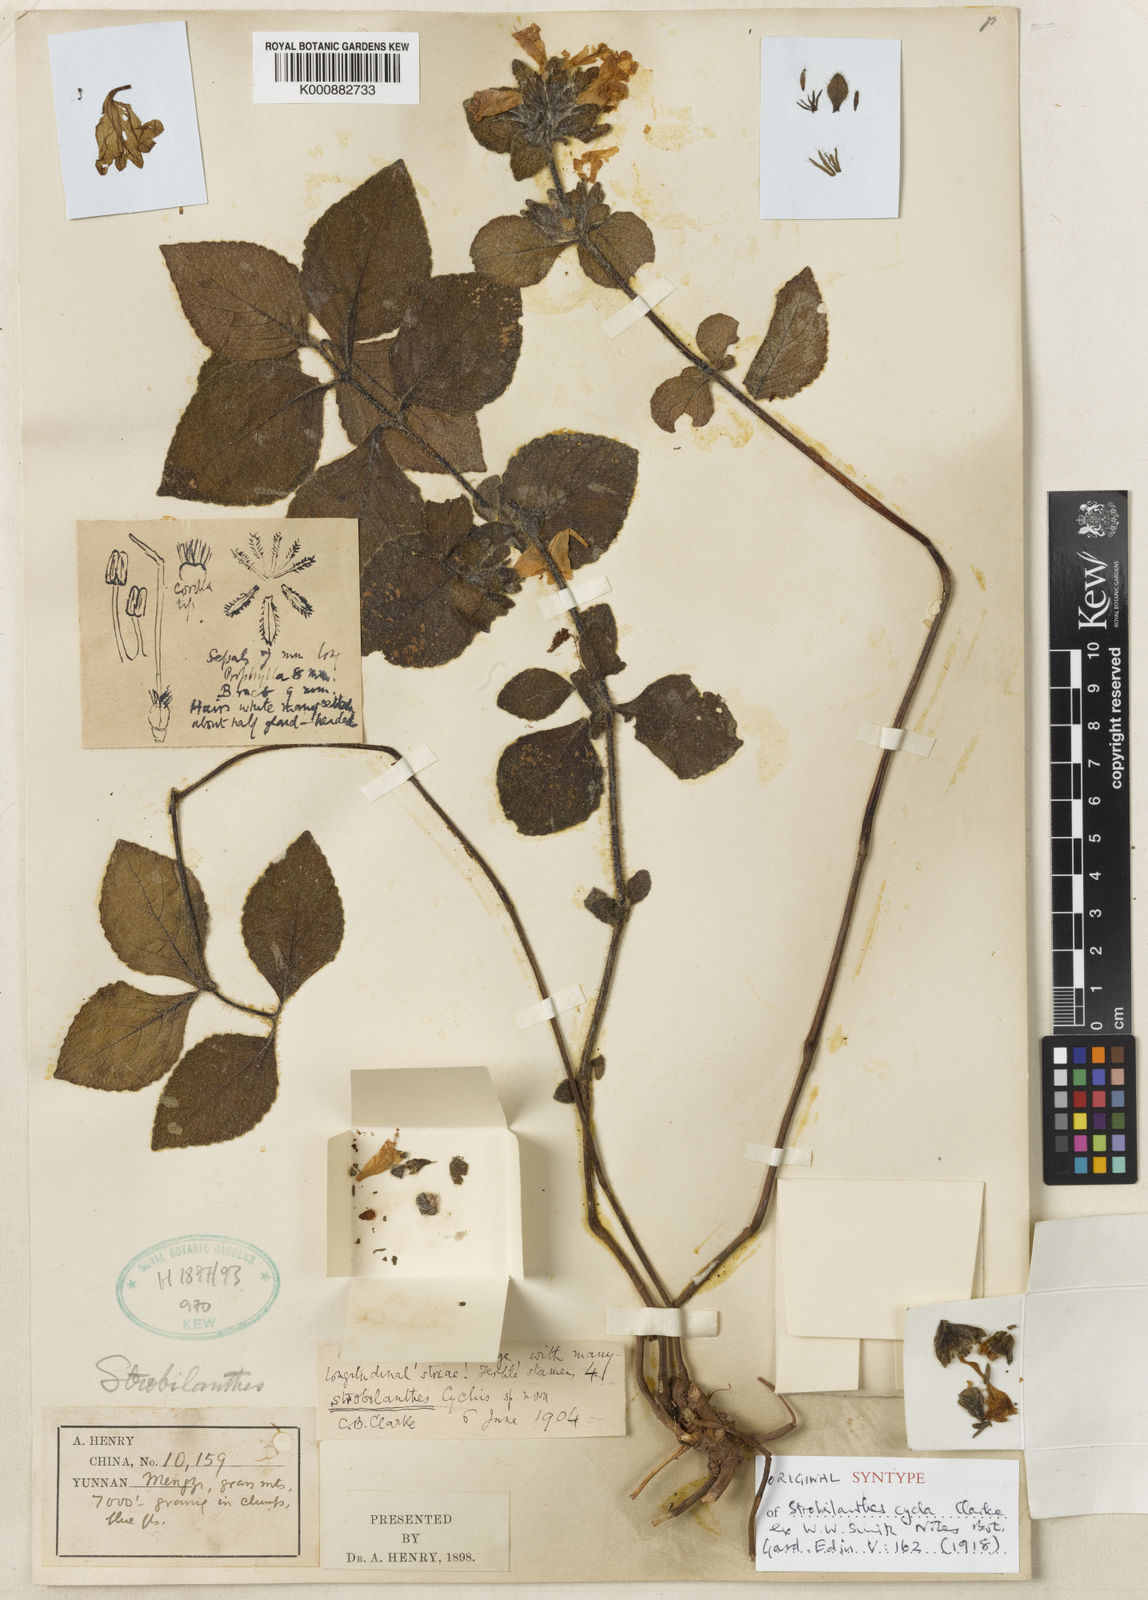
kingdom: Plantae
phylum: Tracheophyta
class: Magnoliopsida
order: Lamiales
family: Acanthaceae
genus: Strobilanthes
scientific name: Strobilanthes
